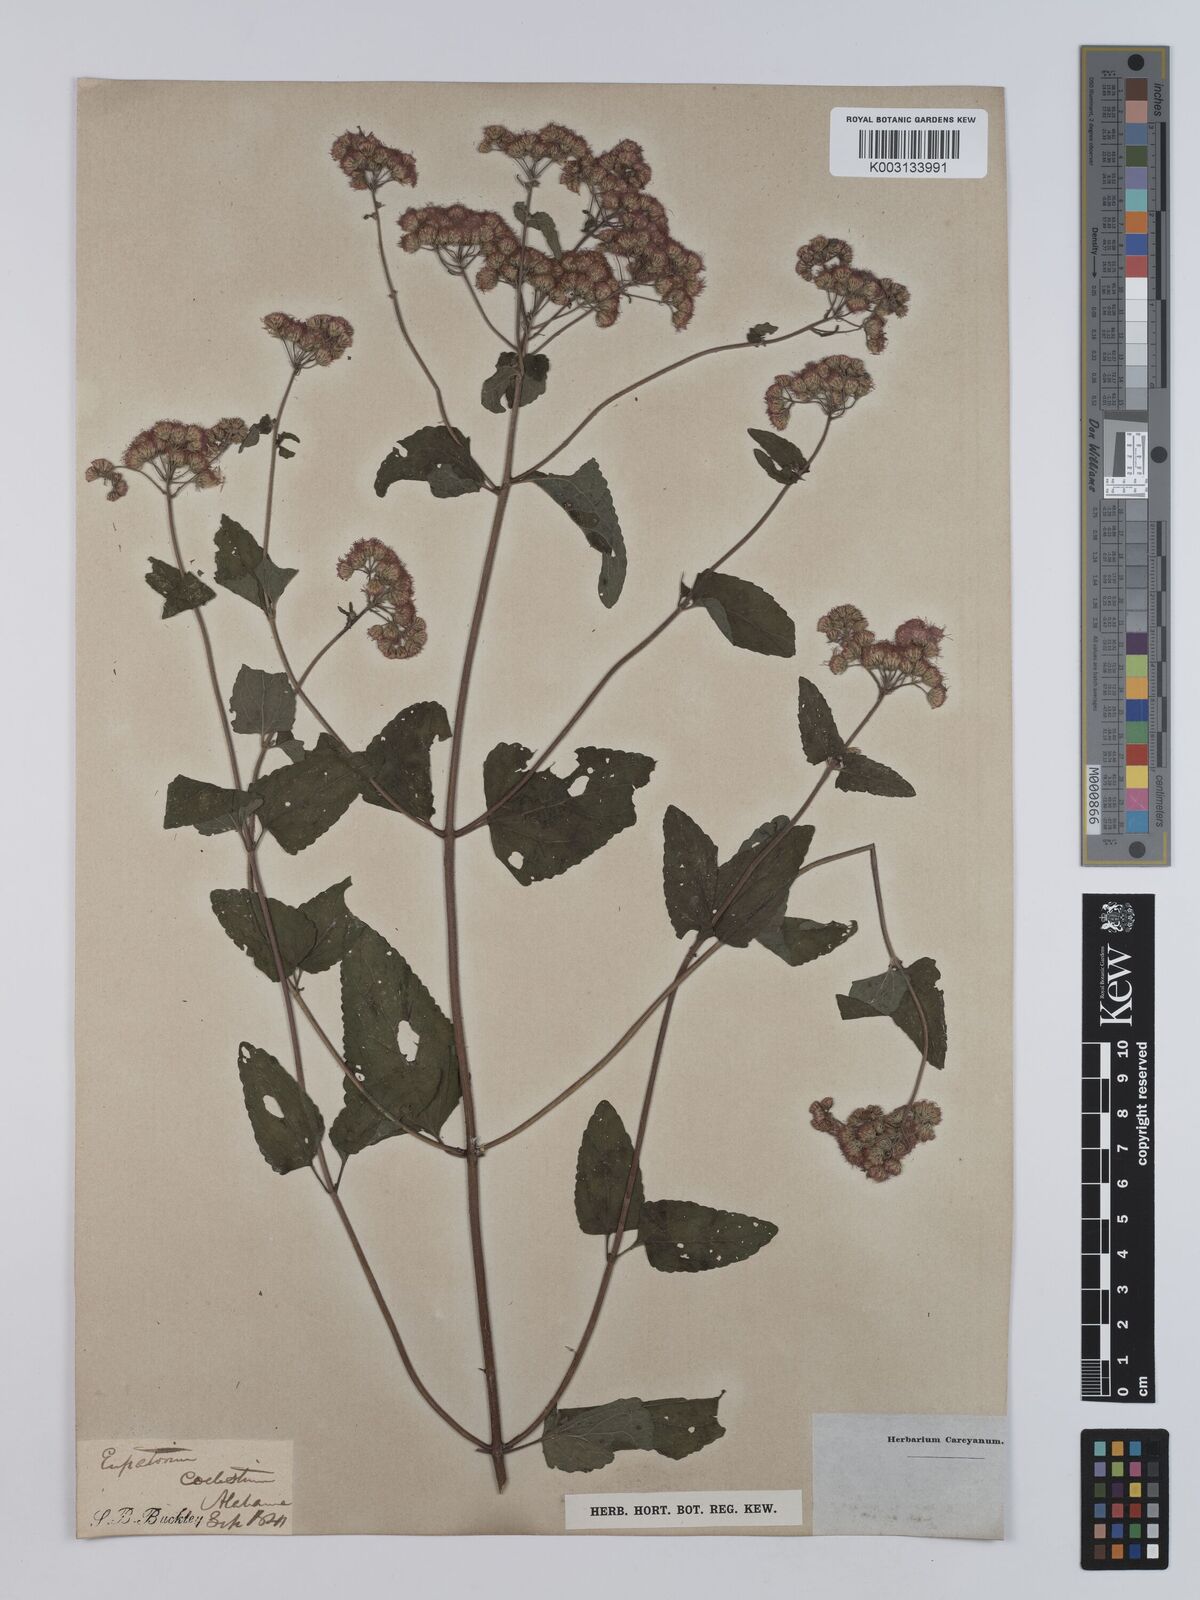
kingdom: Plantae
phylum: Tracheophyta
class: Magnoliopsida
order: Asterales
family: Asteraceae
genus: Conoclinium
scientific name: Conoclinium coelestinum
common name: Blue mistflower
